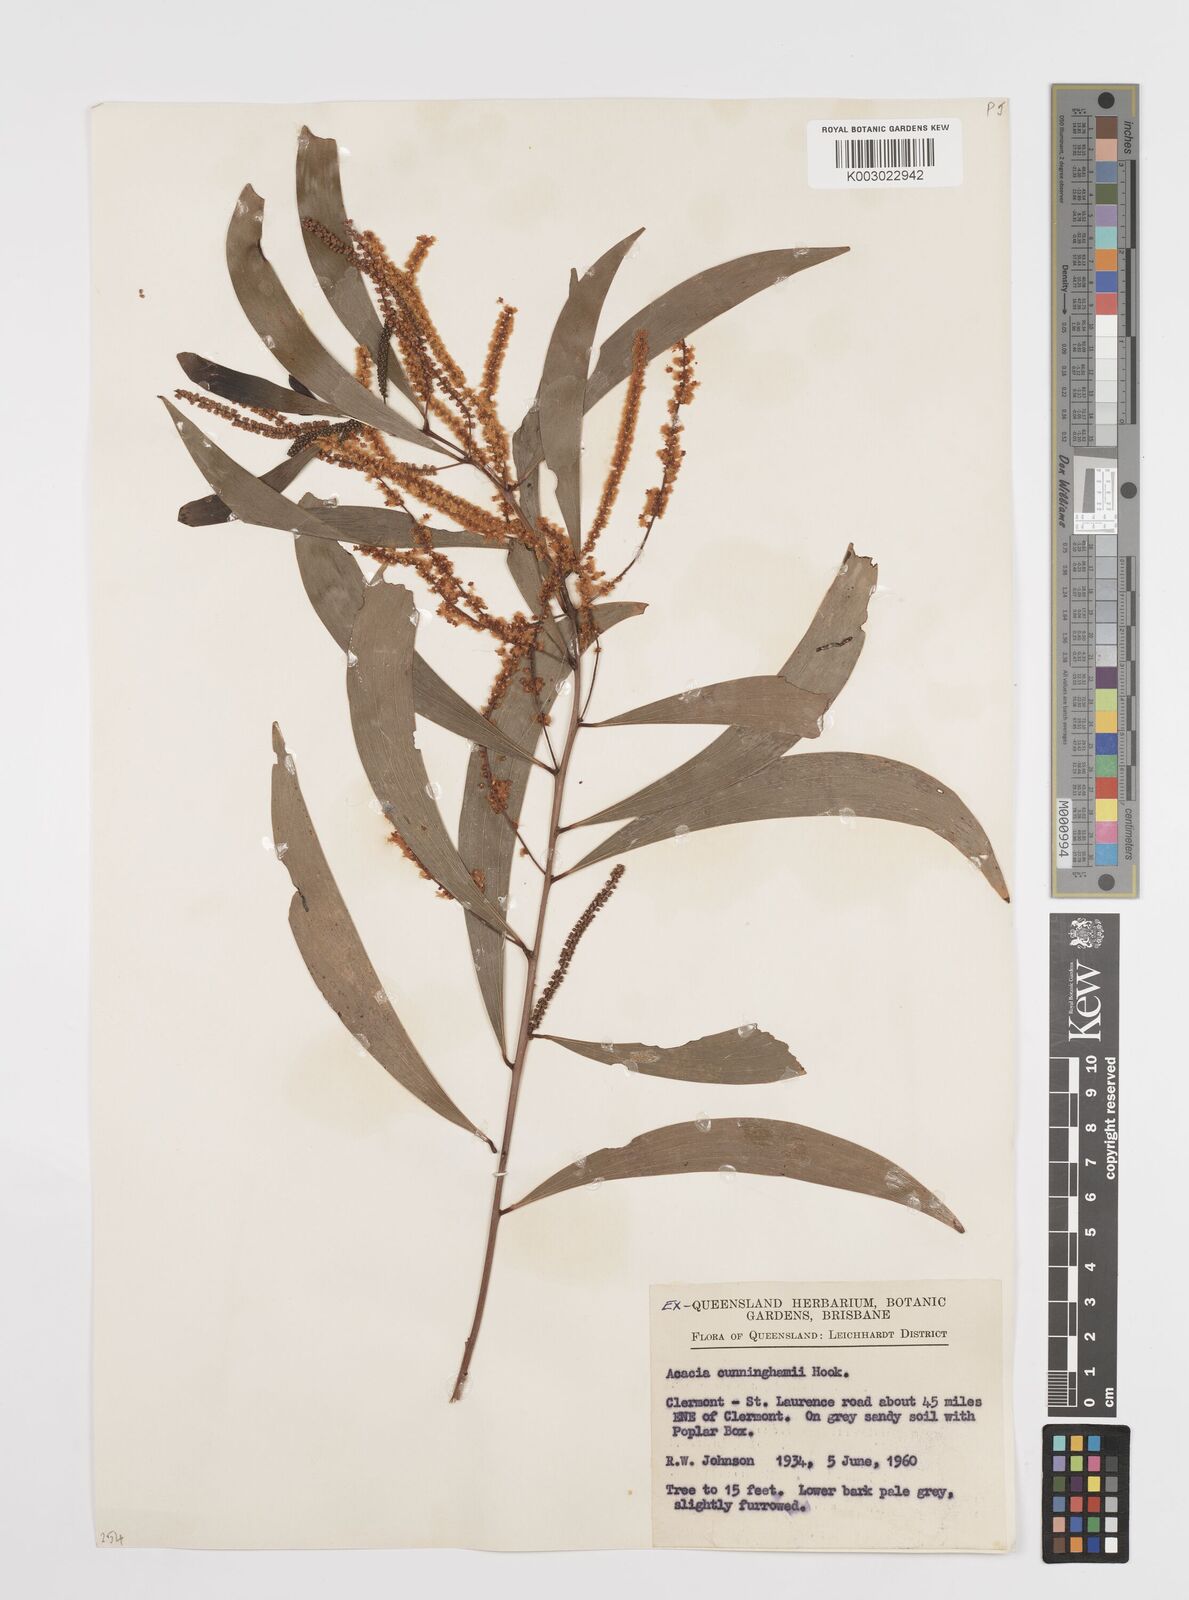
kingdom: Plantae
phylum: Tracheophyta
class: Magnoliopsida
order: Fabales
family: Fabaceae
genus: Acacia
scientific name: Acacia longispicata
